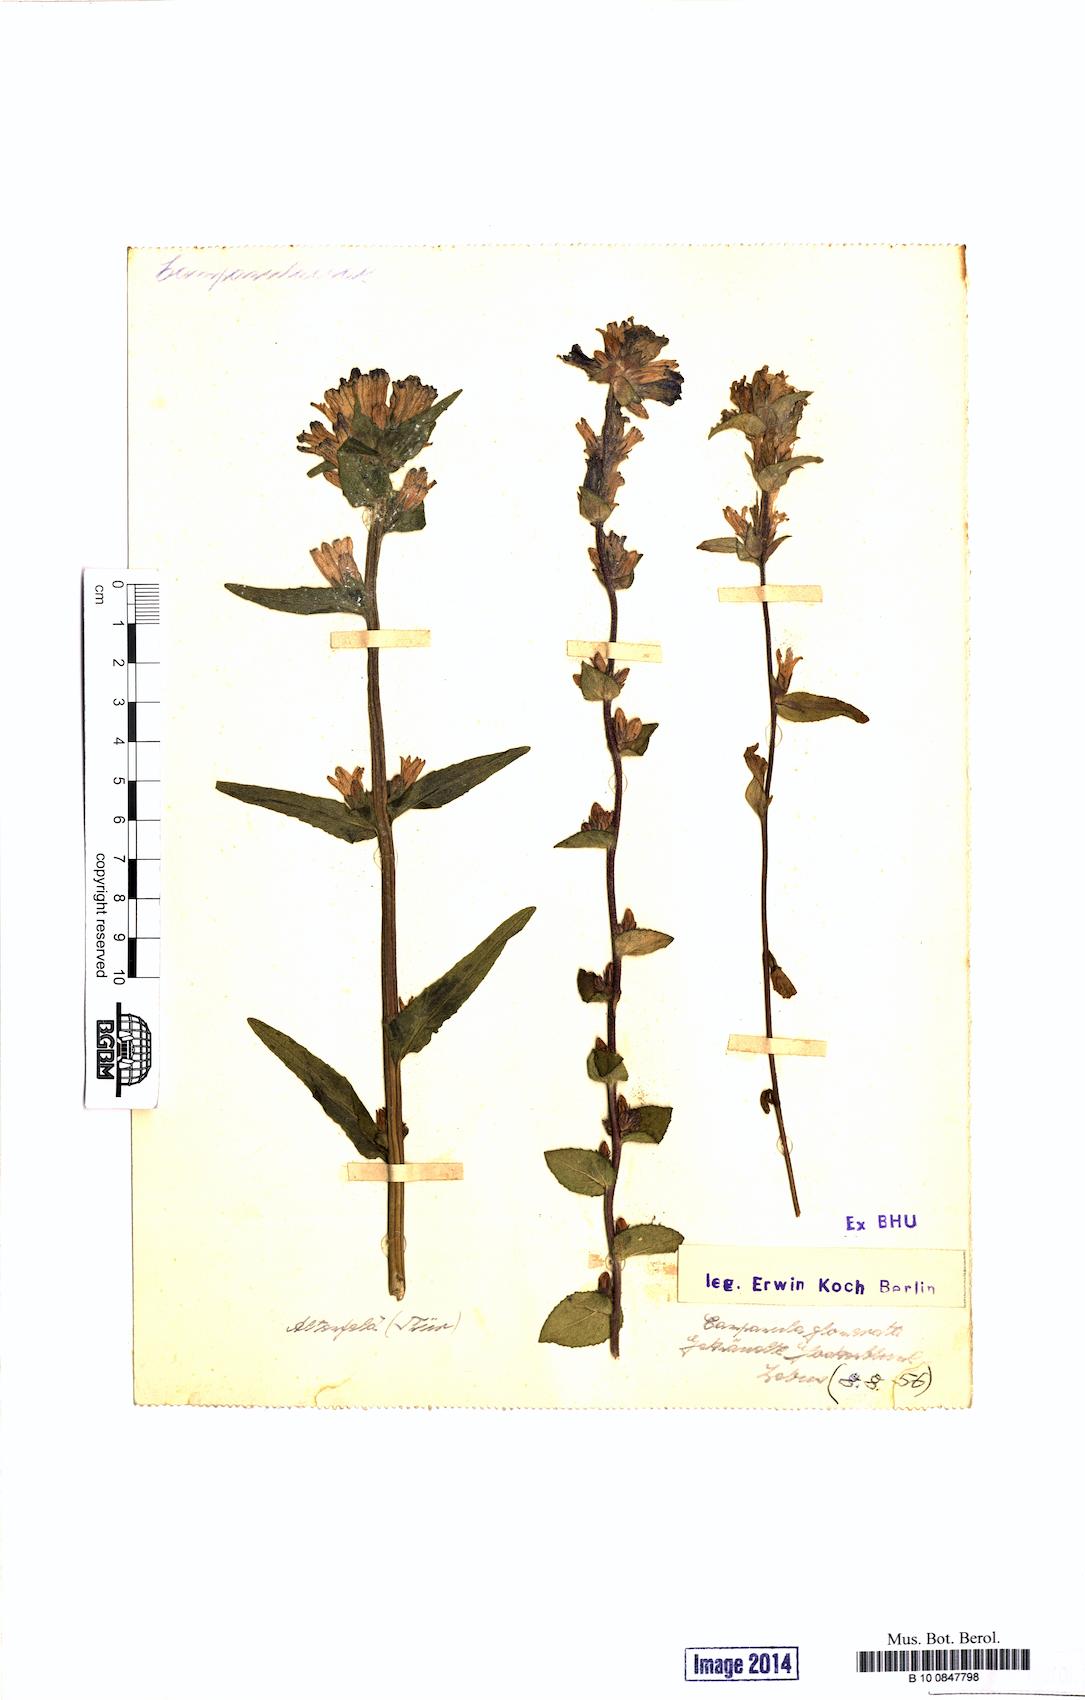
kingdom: Plantae
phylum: Tracheophyta
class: Magnoliopsida
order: Asterales
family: Campanulaceae
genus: Campanula
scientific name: Campanula glomerata
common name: Clustered bellflower
